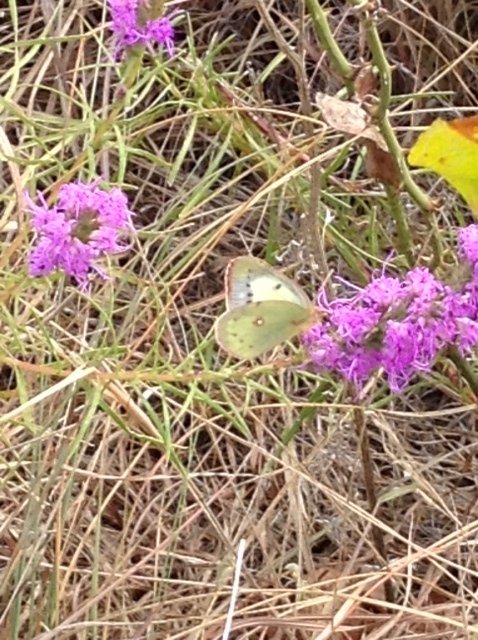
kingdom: Animalia
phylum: Arthropoda
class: Insecta
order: Lepidoptera
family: Pieridae
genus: Colias
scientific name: Colias eurytheme
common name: Orange Sulphur
